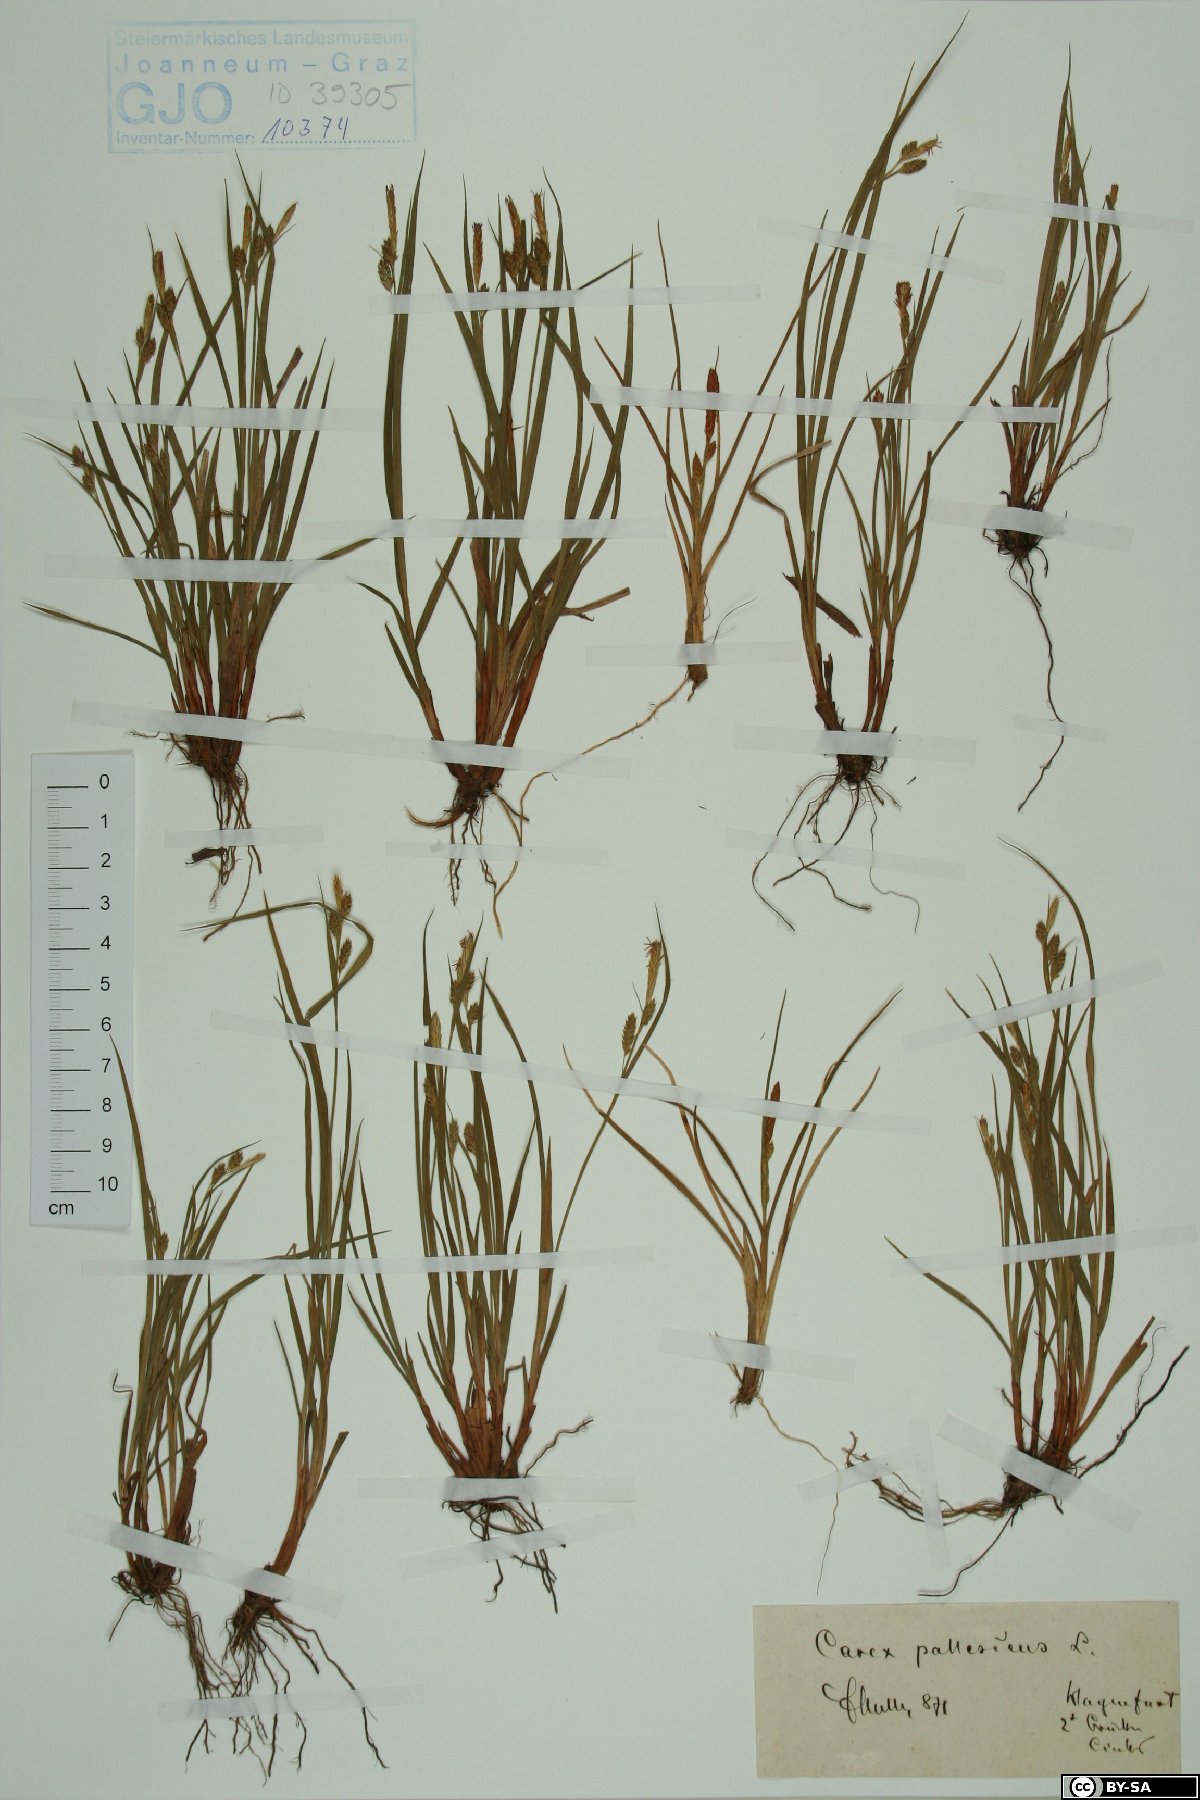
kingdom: Plantae
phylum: Tracheophyta
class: Liliopsida
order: Poales
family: Cyperaceae
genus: Carex
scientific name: Carex pallescens
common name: Pale sedge
